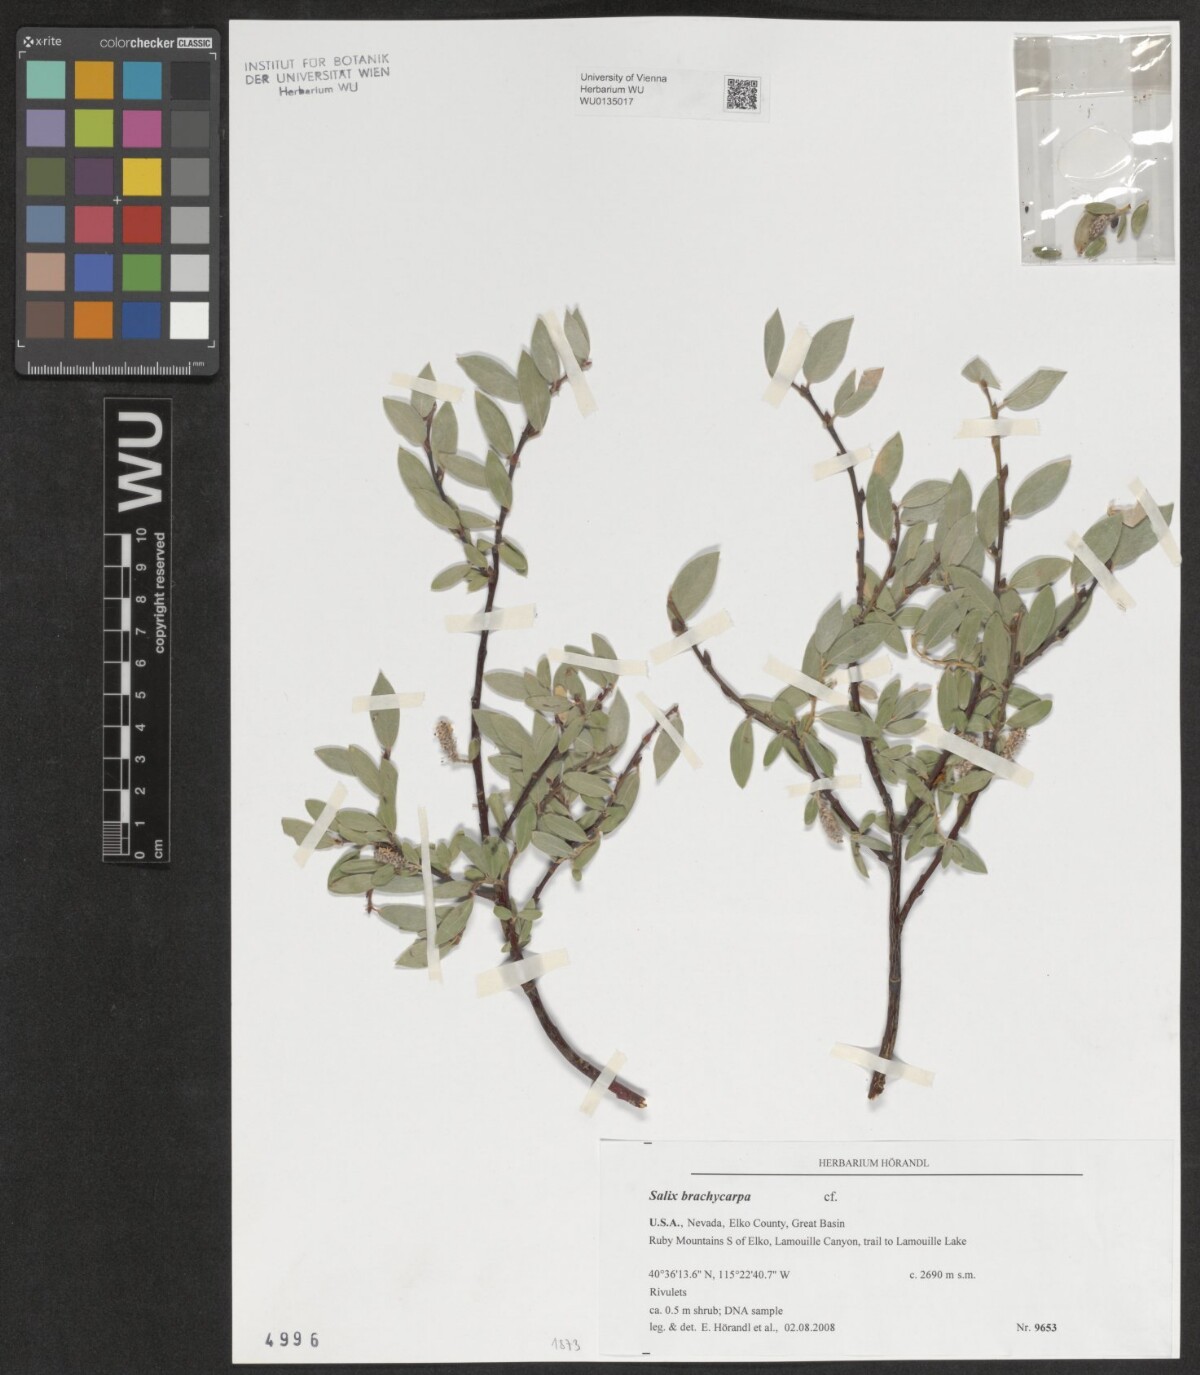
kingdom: Plantae
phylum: Tracheophyta
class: Magnoliopsida
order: Malpighiales
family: Salicaceae
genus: Salix
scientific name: Salix brachycarpa
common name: Barren-ground willow
